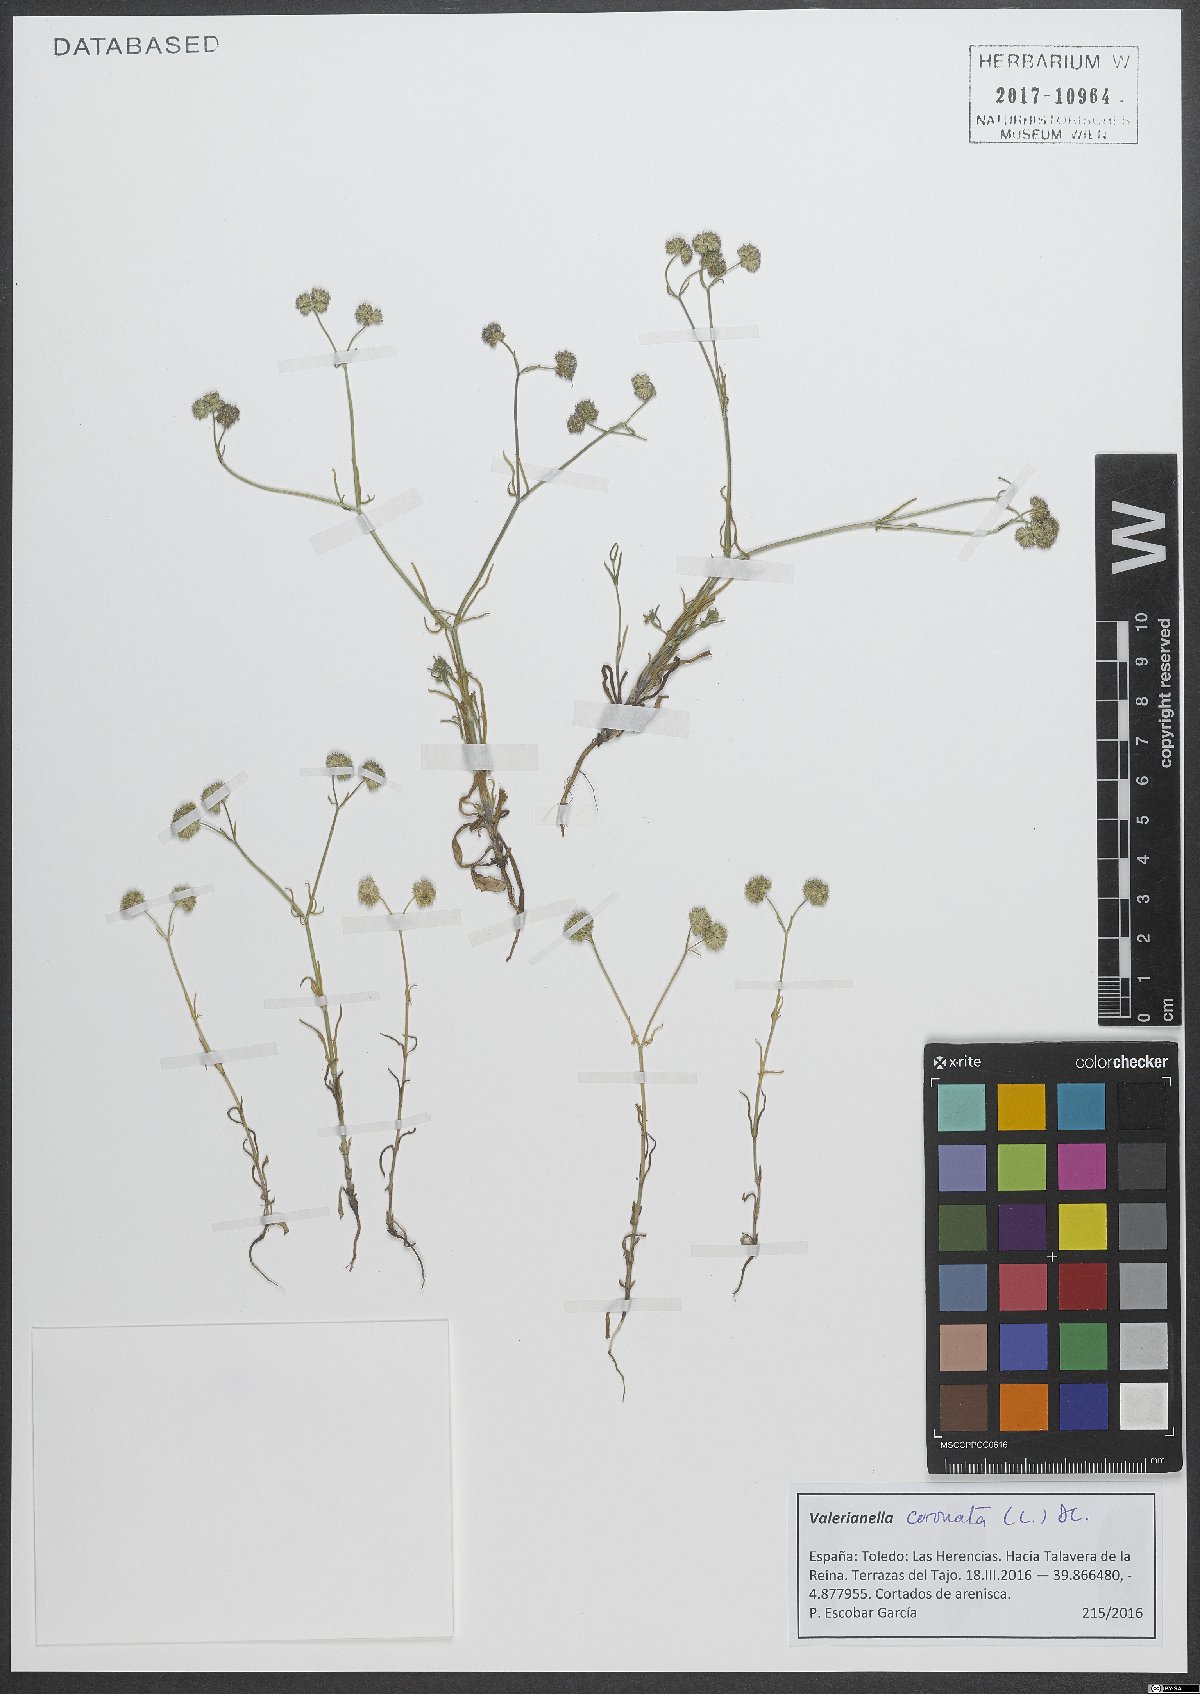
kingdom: Plantae
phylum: Tracheophyta
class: Magnoliopsida
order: Dipsacales
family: Caprifoliaceae
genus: Valerianella
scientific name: Valerianella coronata
